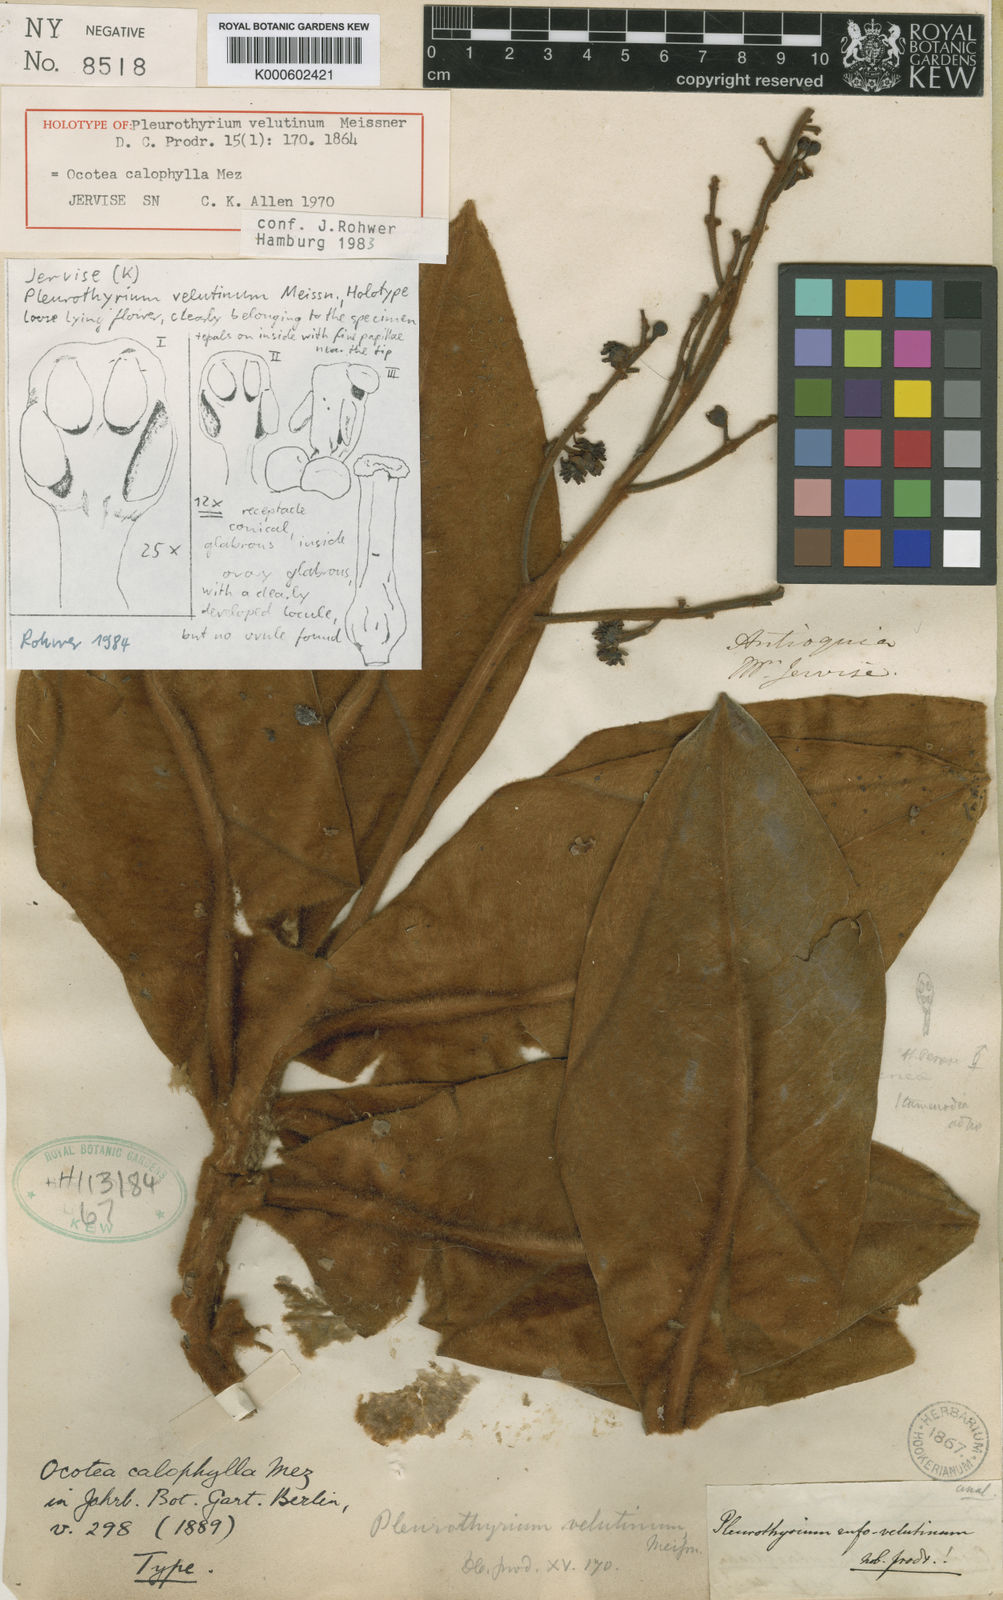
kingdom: Plantae
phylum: Tracheophyta
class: Magnoliopsida
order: Laurales
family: Lauraceae
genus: Andea
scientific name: Andea fulvescens
